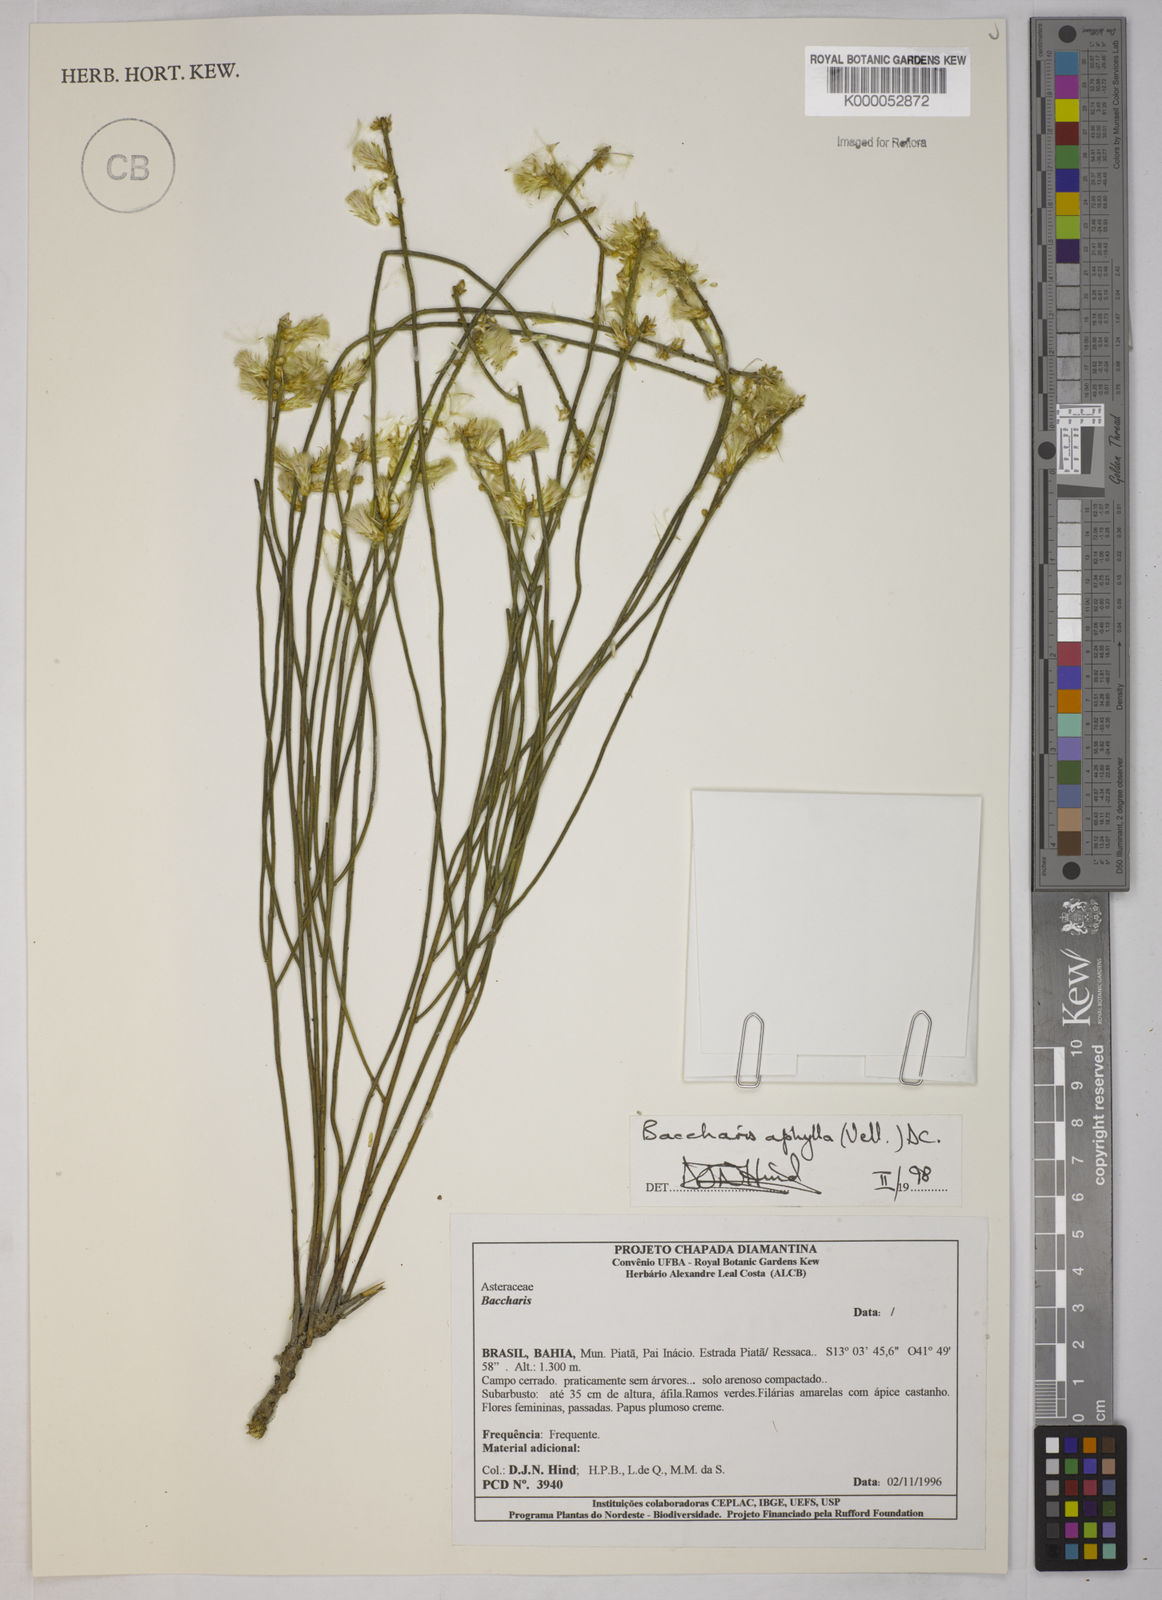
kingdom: Plantae
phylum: Tracheophyta
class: Magnoliopsida
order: Asterales
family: Asteraceae
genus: Baccharis
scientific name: Baccharis aphylla
